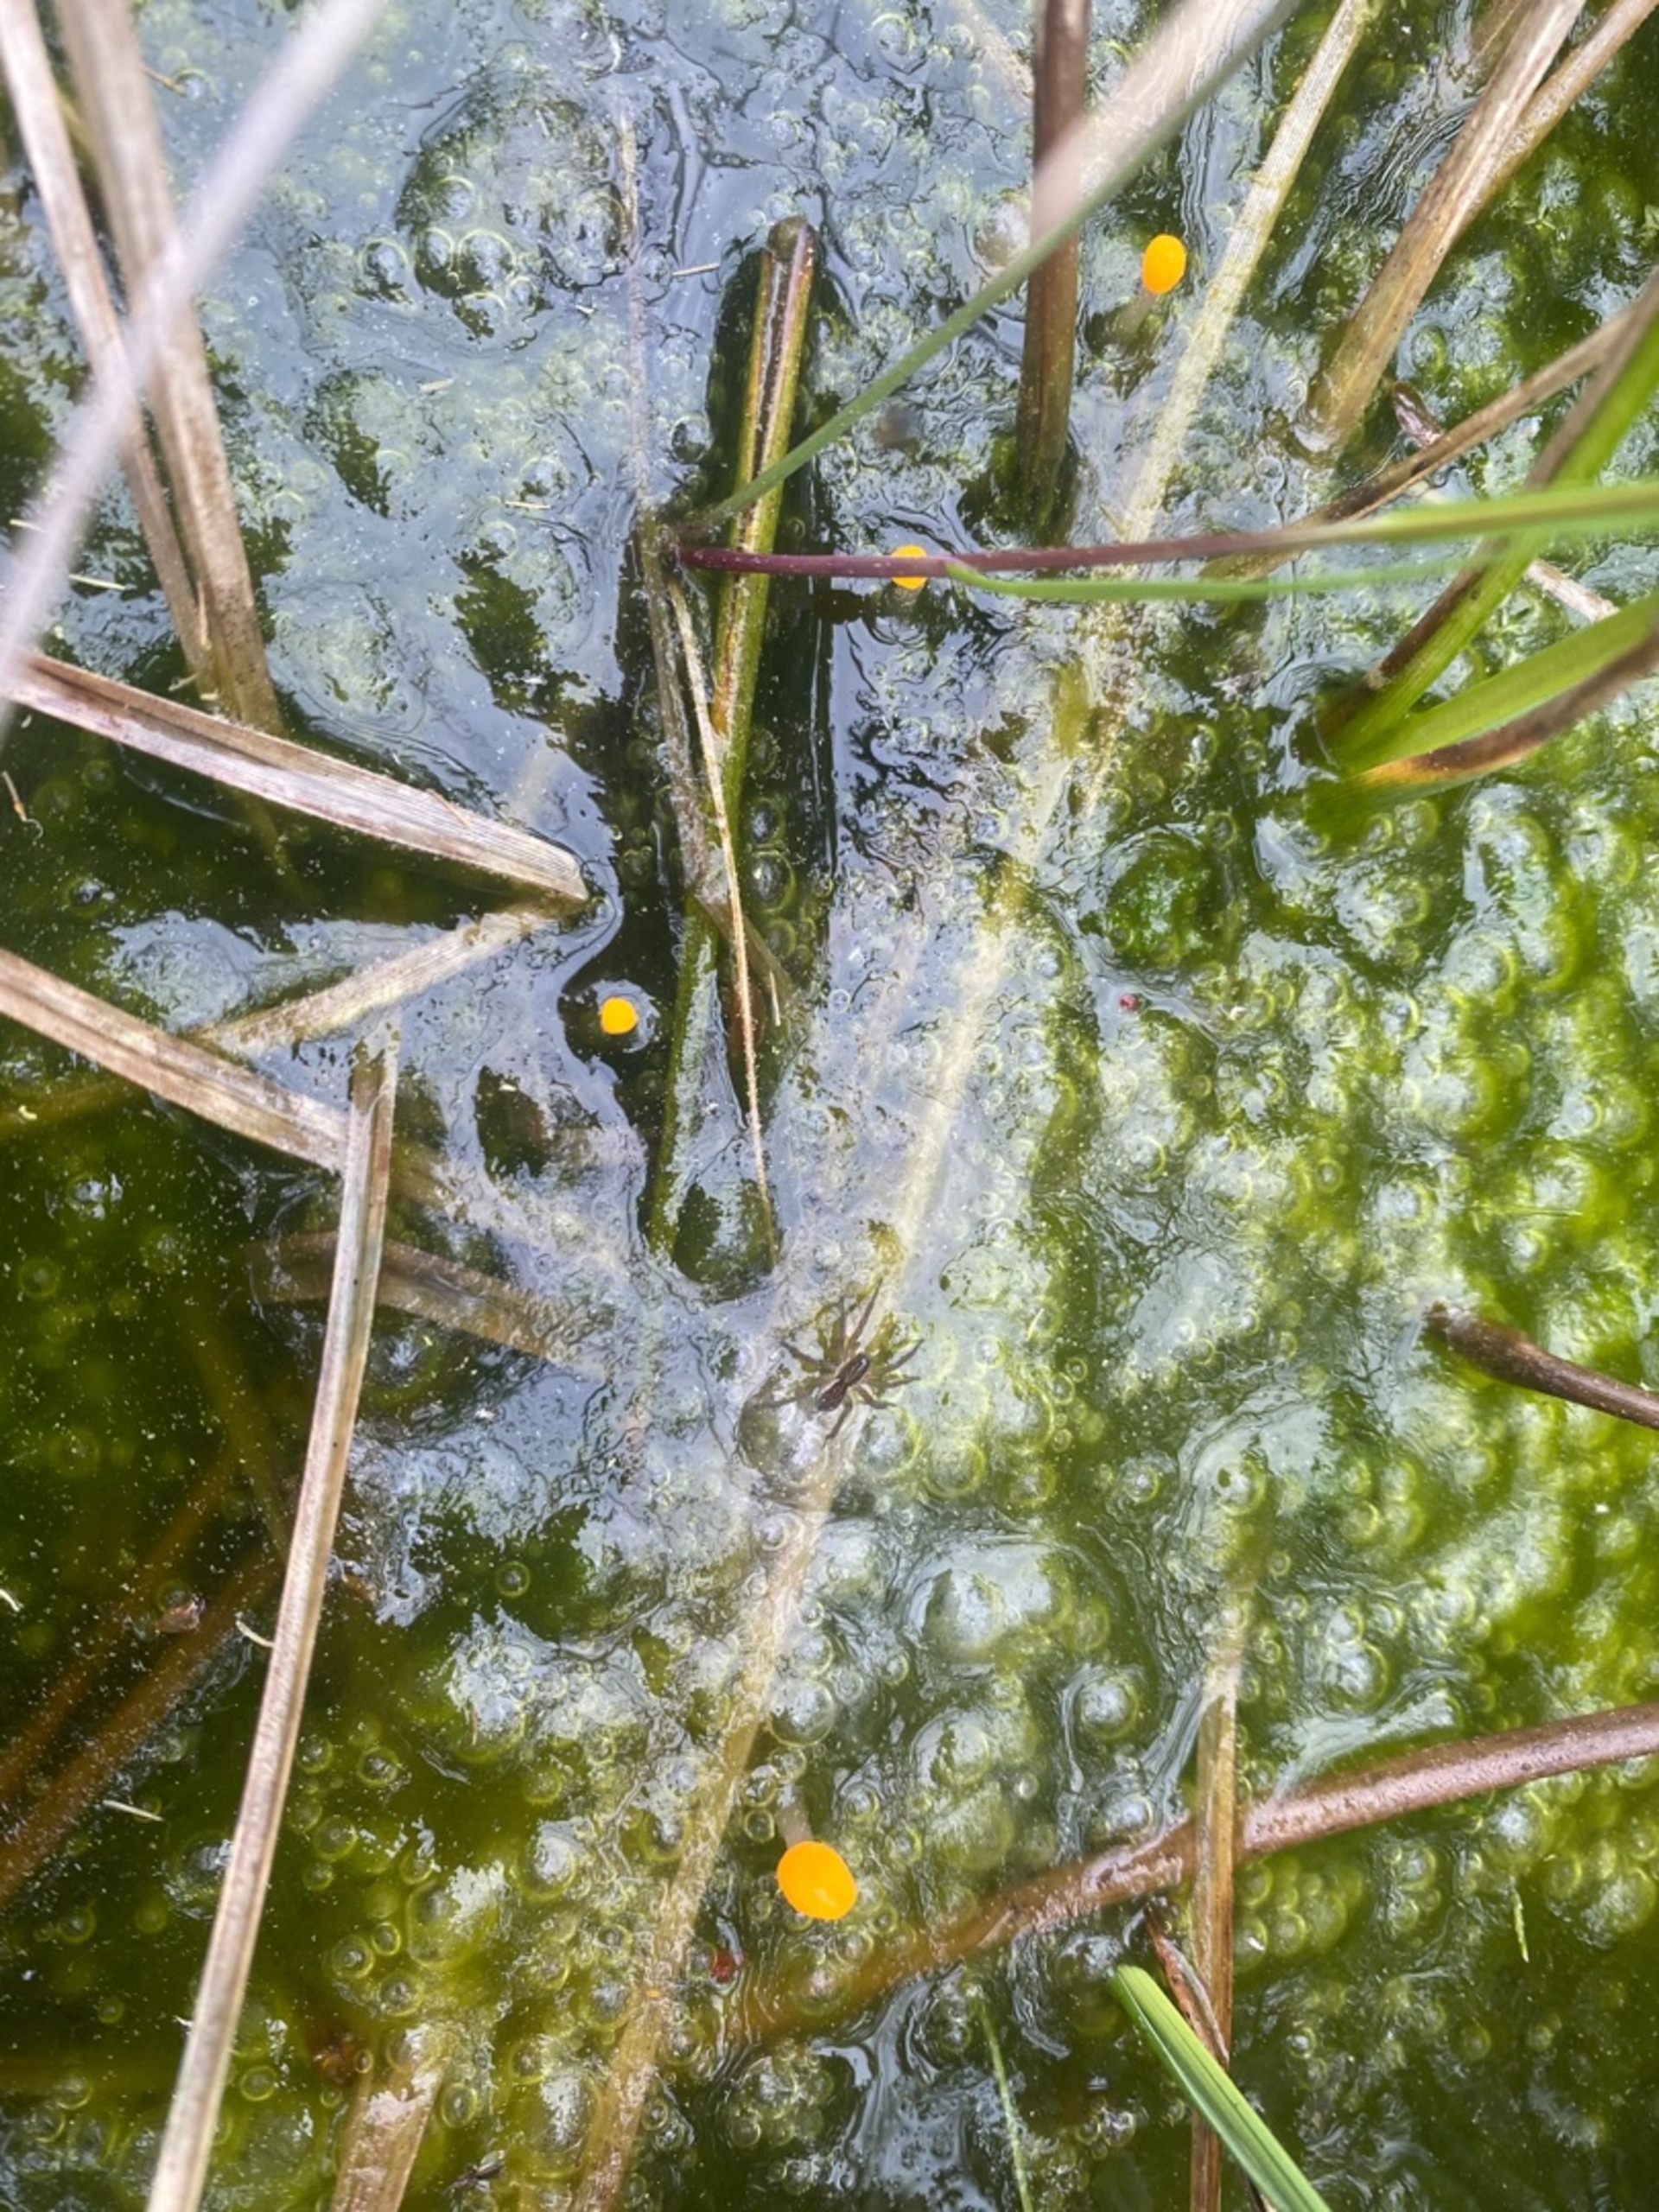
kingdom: Fungi
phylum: Ascomycota
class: Leotiomycetes
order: Helotiales
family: Cenangiaceae
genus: Mitrula
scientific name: Mitrula paludosa
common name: Gul nøkketunge
